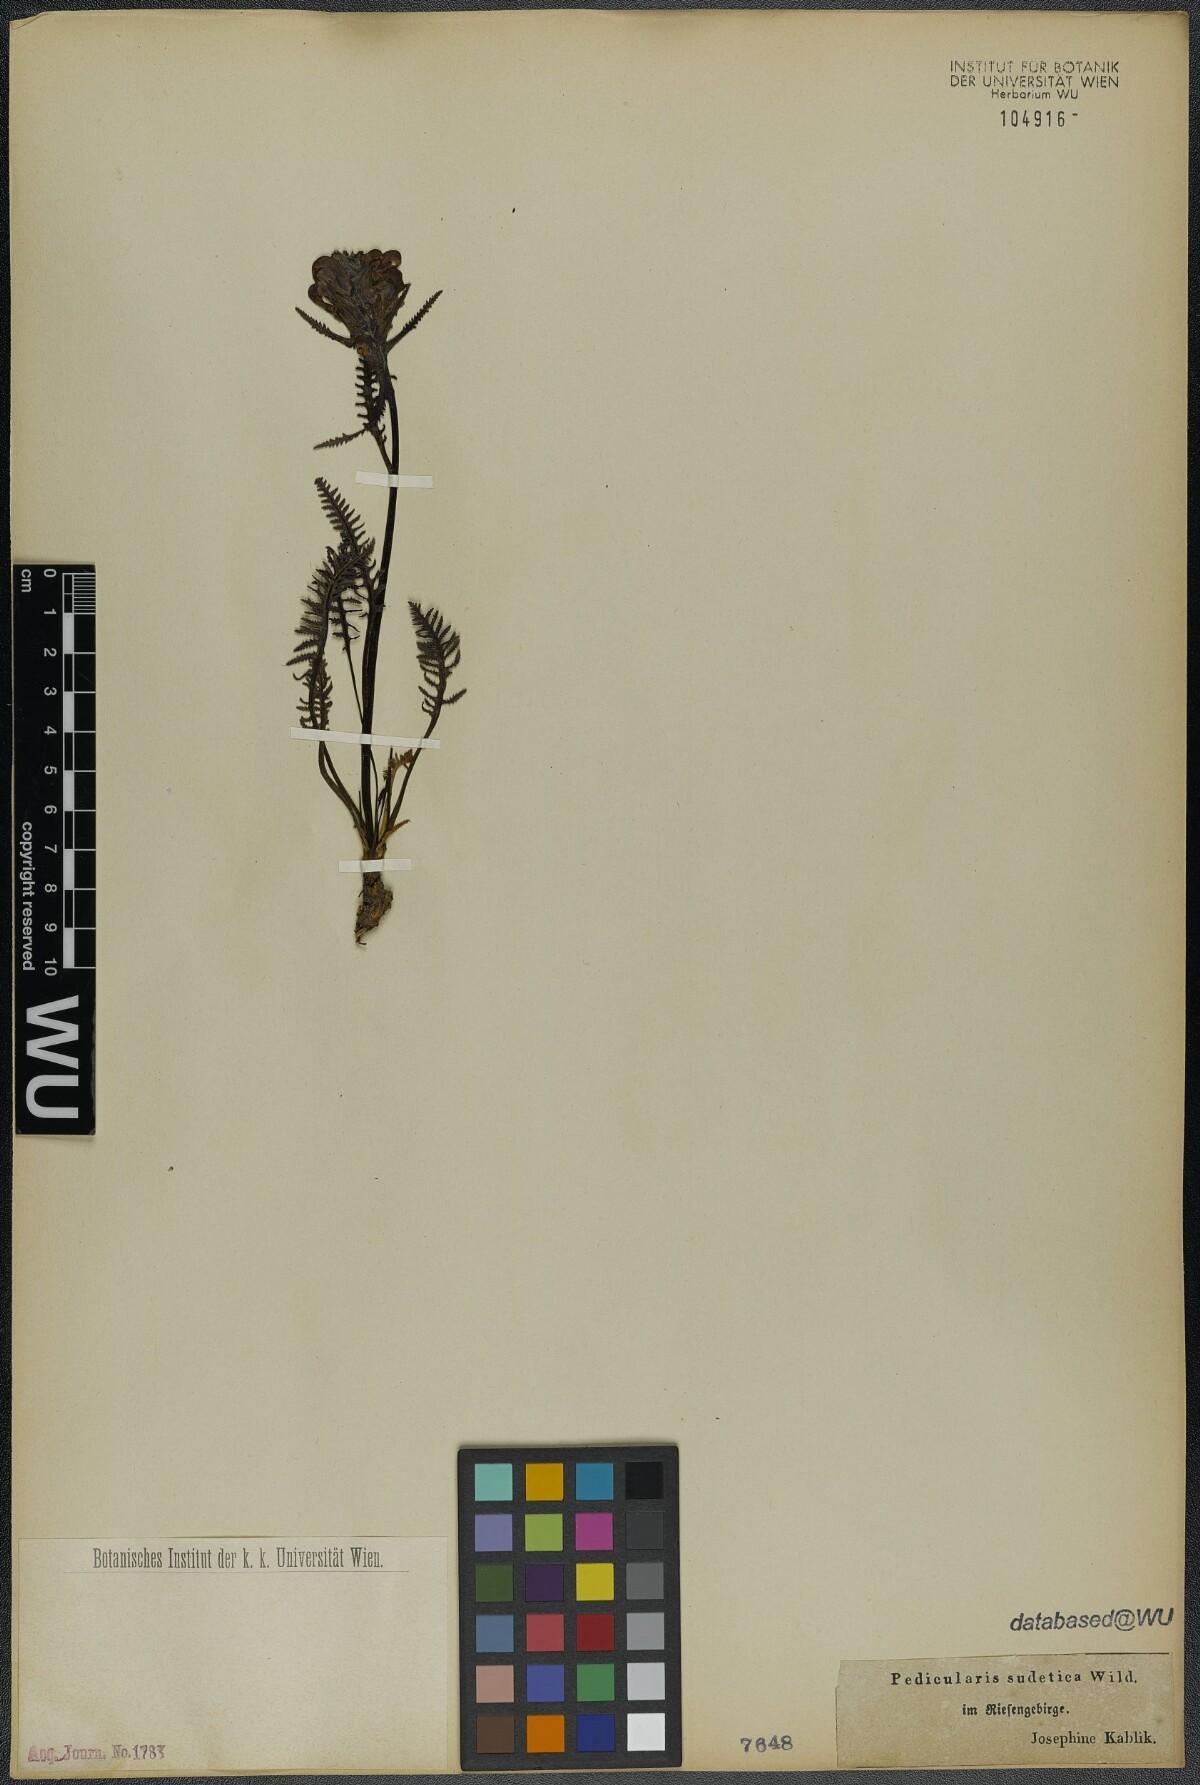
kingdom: Plantae
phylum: Tracheophyta
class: Magnoliopsida
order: Lamiales
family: Orobanchaceae
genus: Pedicularis
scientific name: Pedicularis sudetica
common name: Sudeten lousewort
